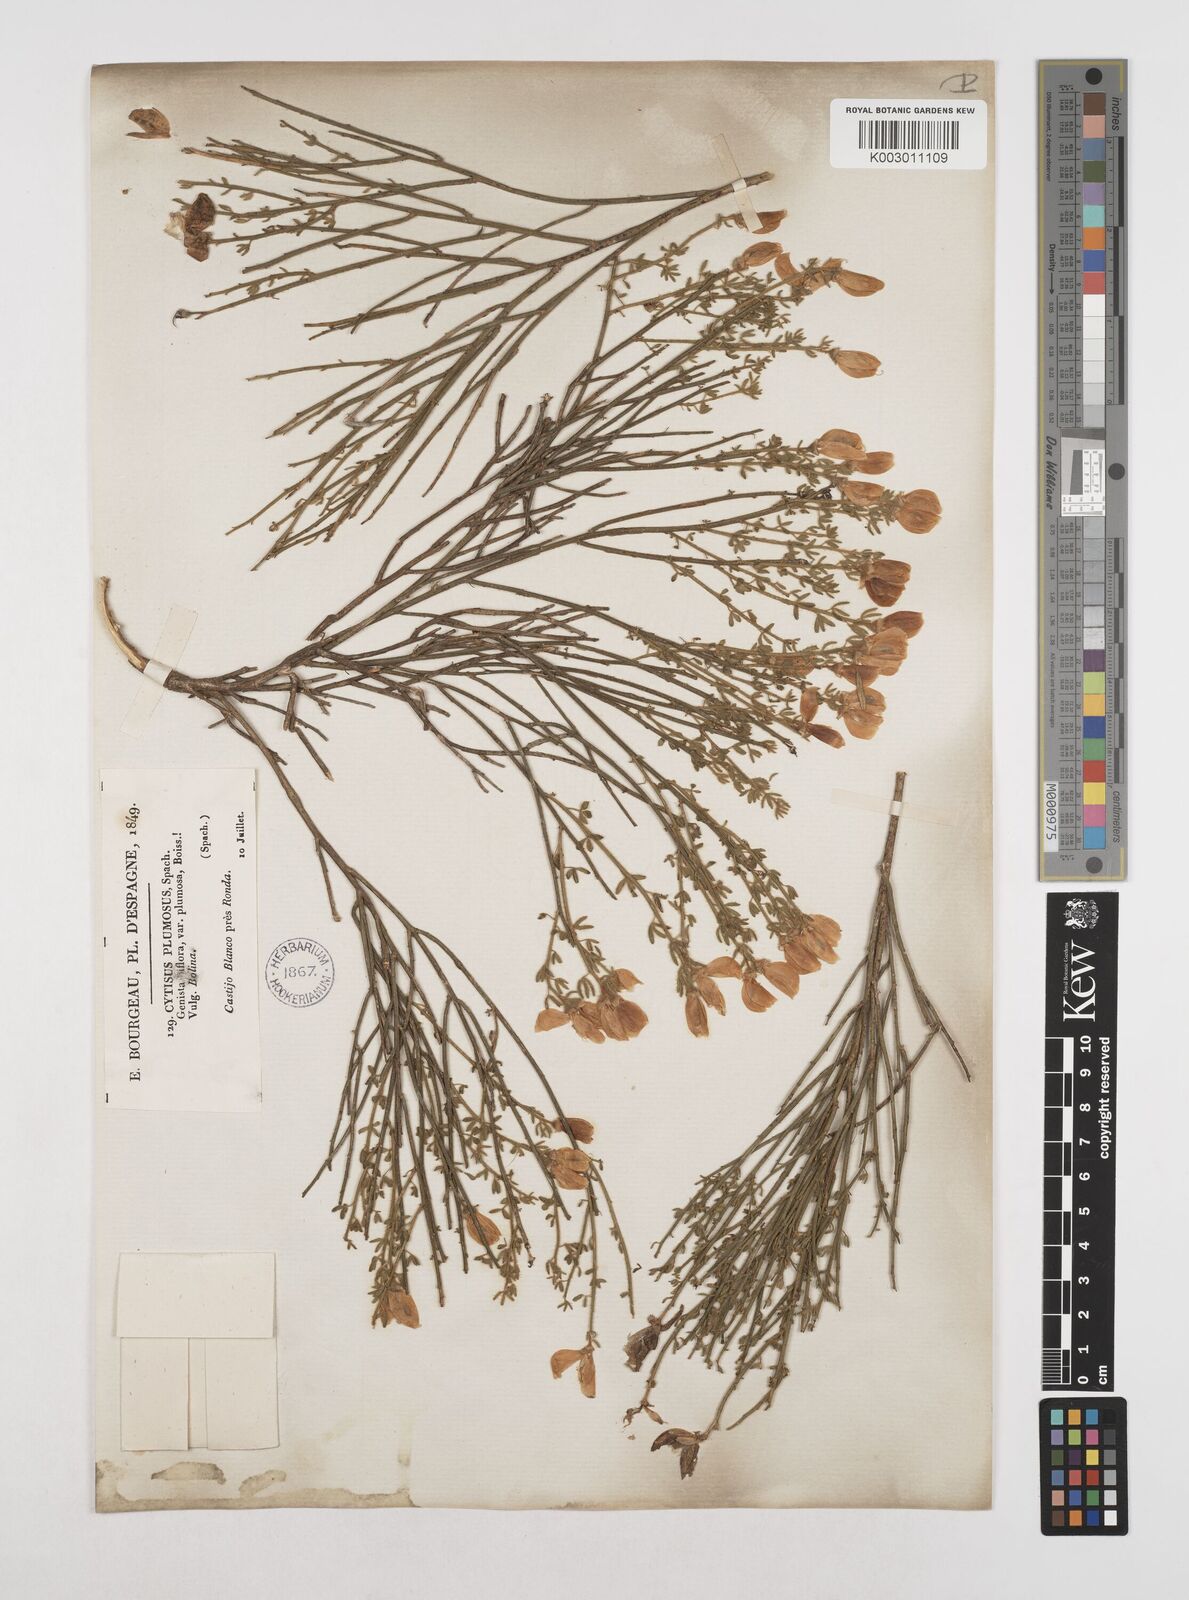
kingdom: Plantae
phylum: Tracheophyta
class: Magnoliopsida
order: Fabales
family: Fabaceae
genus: Cytisus
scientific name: Cytisus fontanesii
